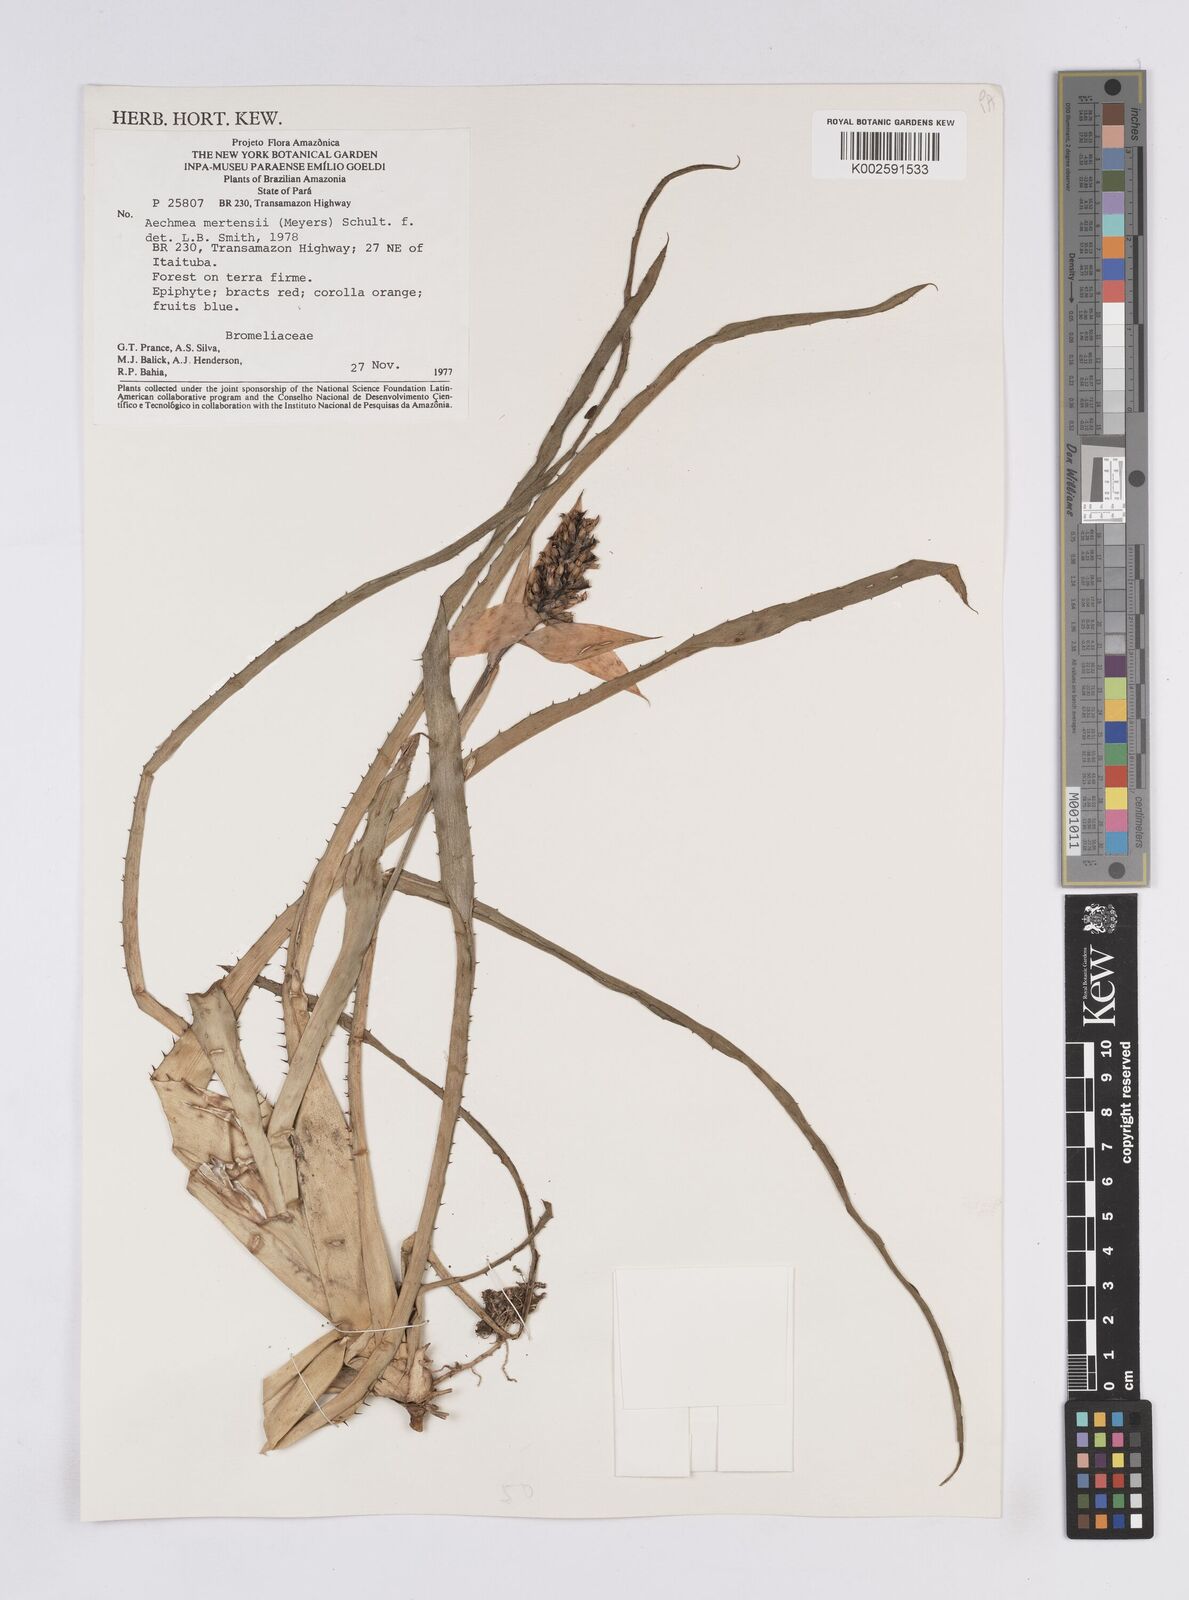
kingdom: Plantae
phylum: Tracheophyta
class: Liliopsida
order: Poales
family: Bromeliaceae
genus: Aechmea
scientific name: Aechmea mertensii
